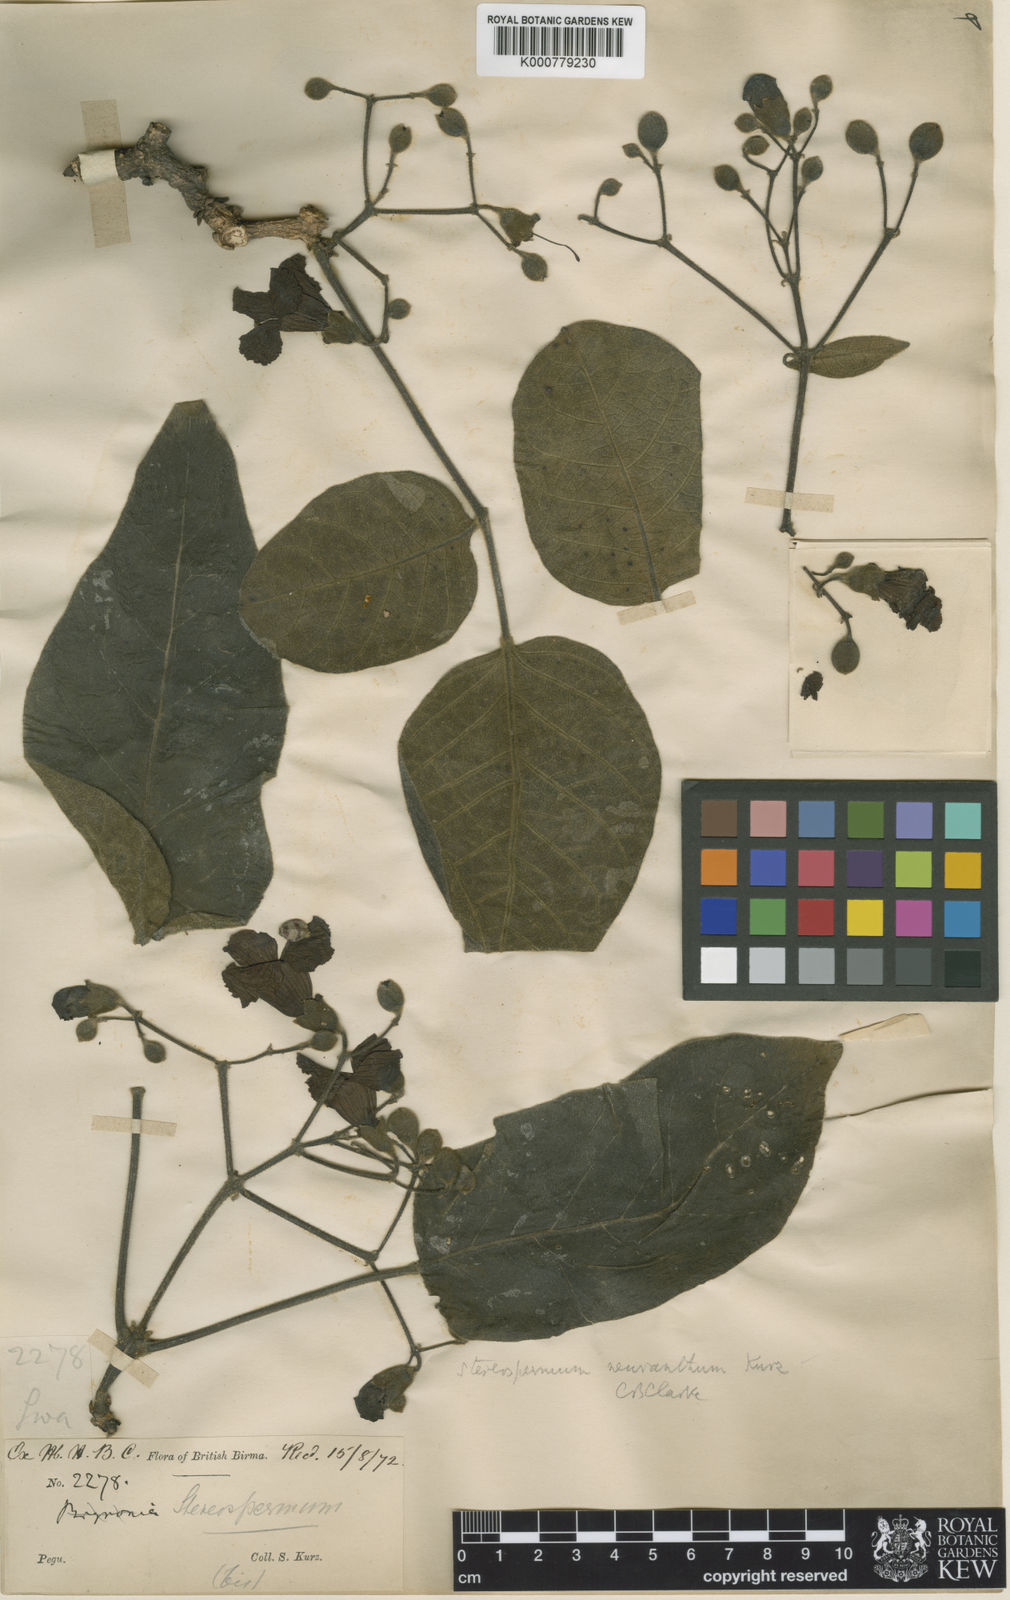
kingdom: Plantae
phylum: Tracheophyta
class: Magnoliopsida
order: Lamiales
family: Bignoniaceae
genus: Stereospermum
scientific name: Stereospermum neuranthum
